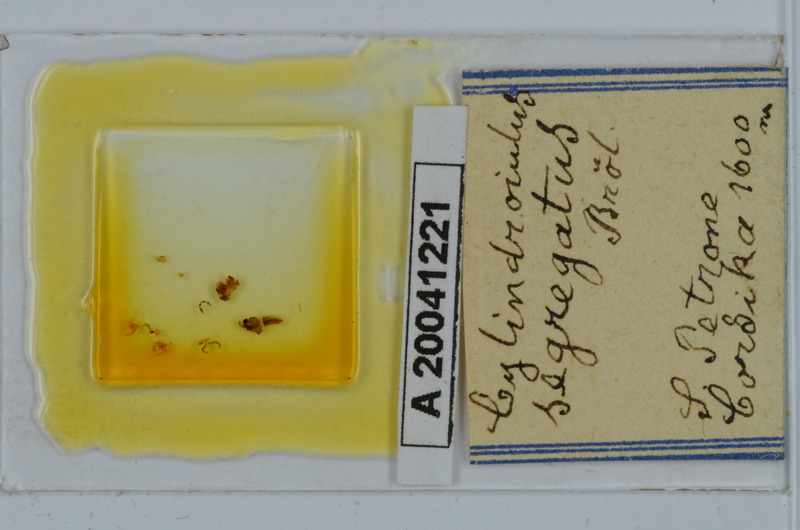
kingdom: Animalia
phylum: Arthropoda
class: Diplopoda
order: Julida
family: Julidae
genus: Cylindroiulus
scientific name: Cylindroiulus segregatus
